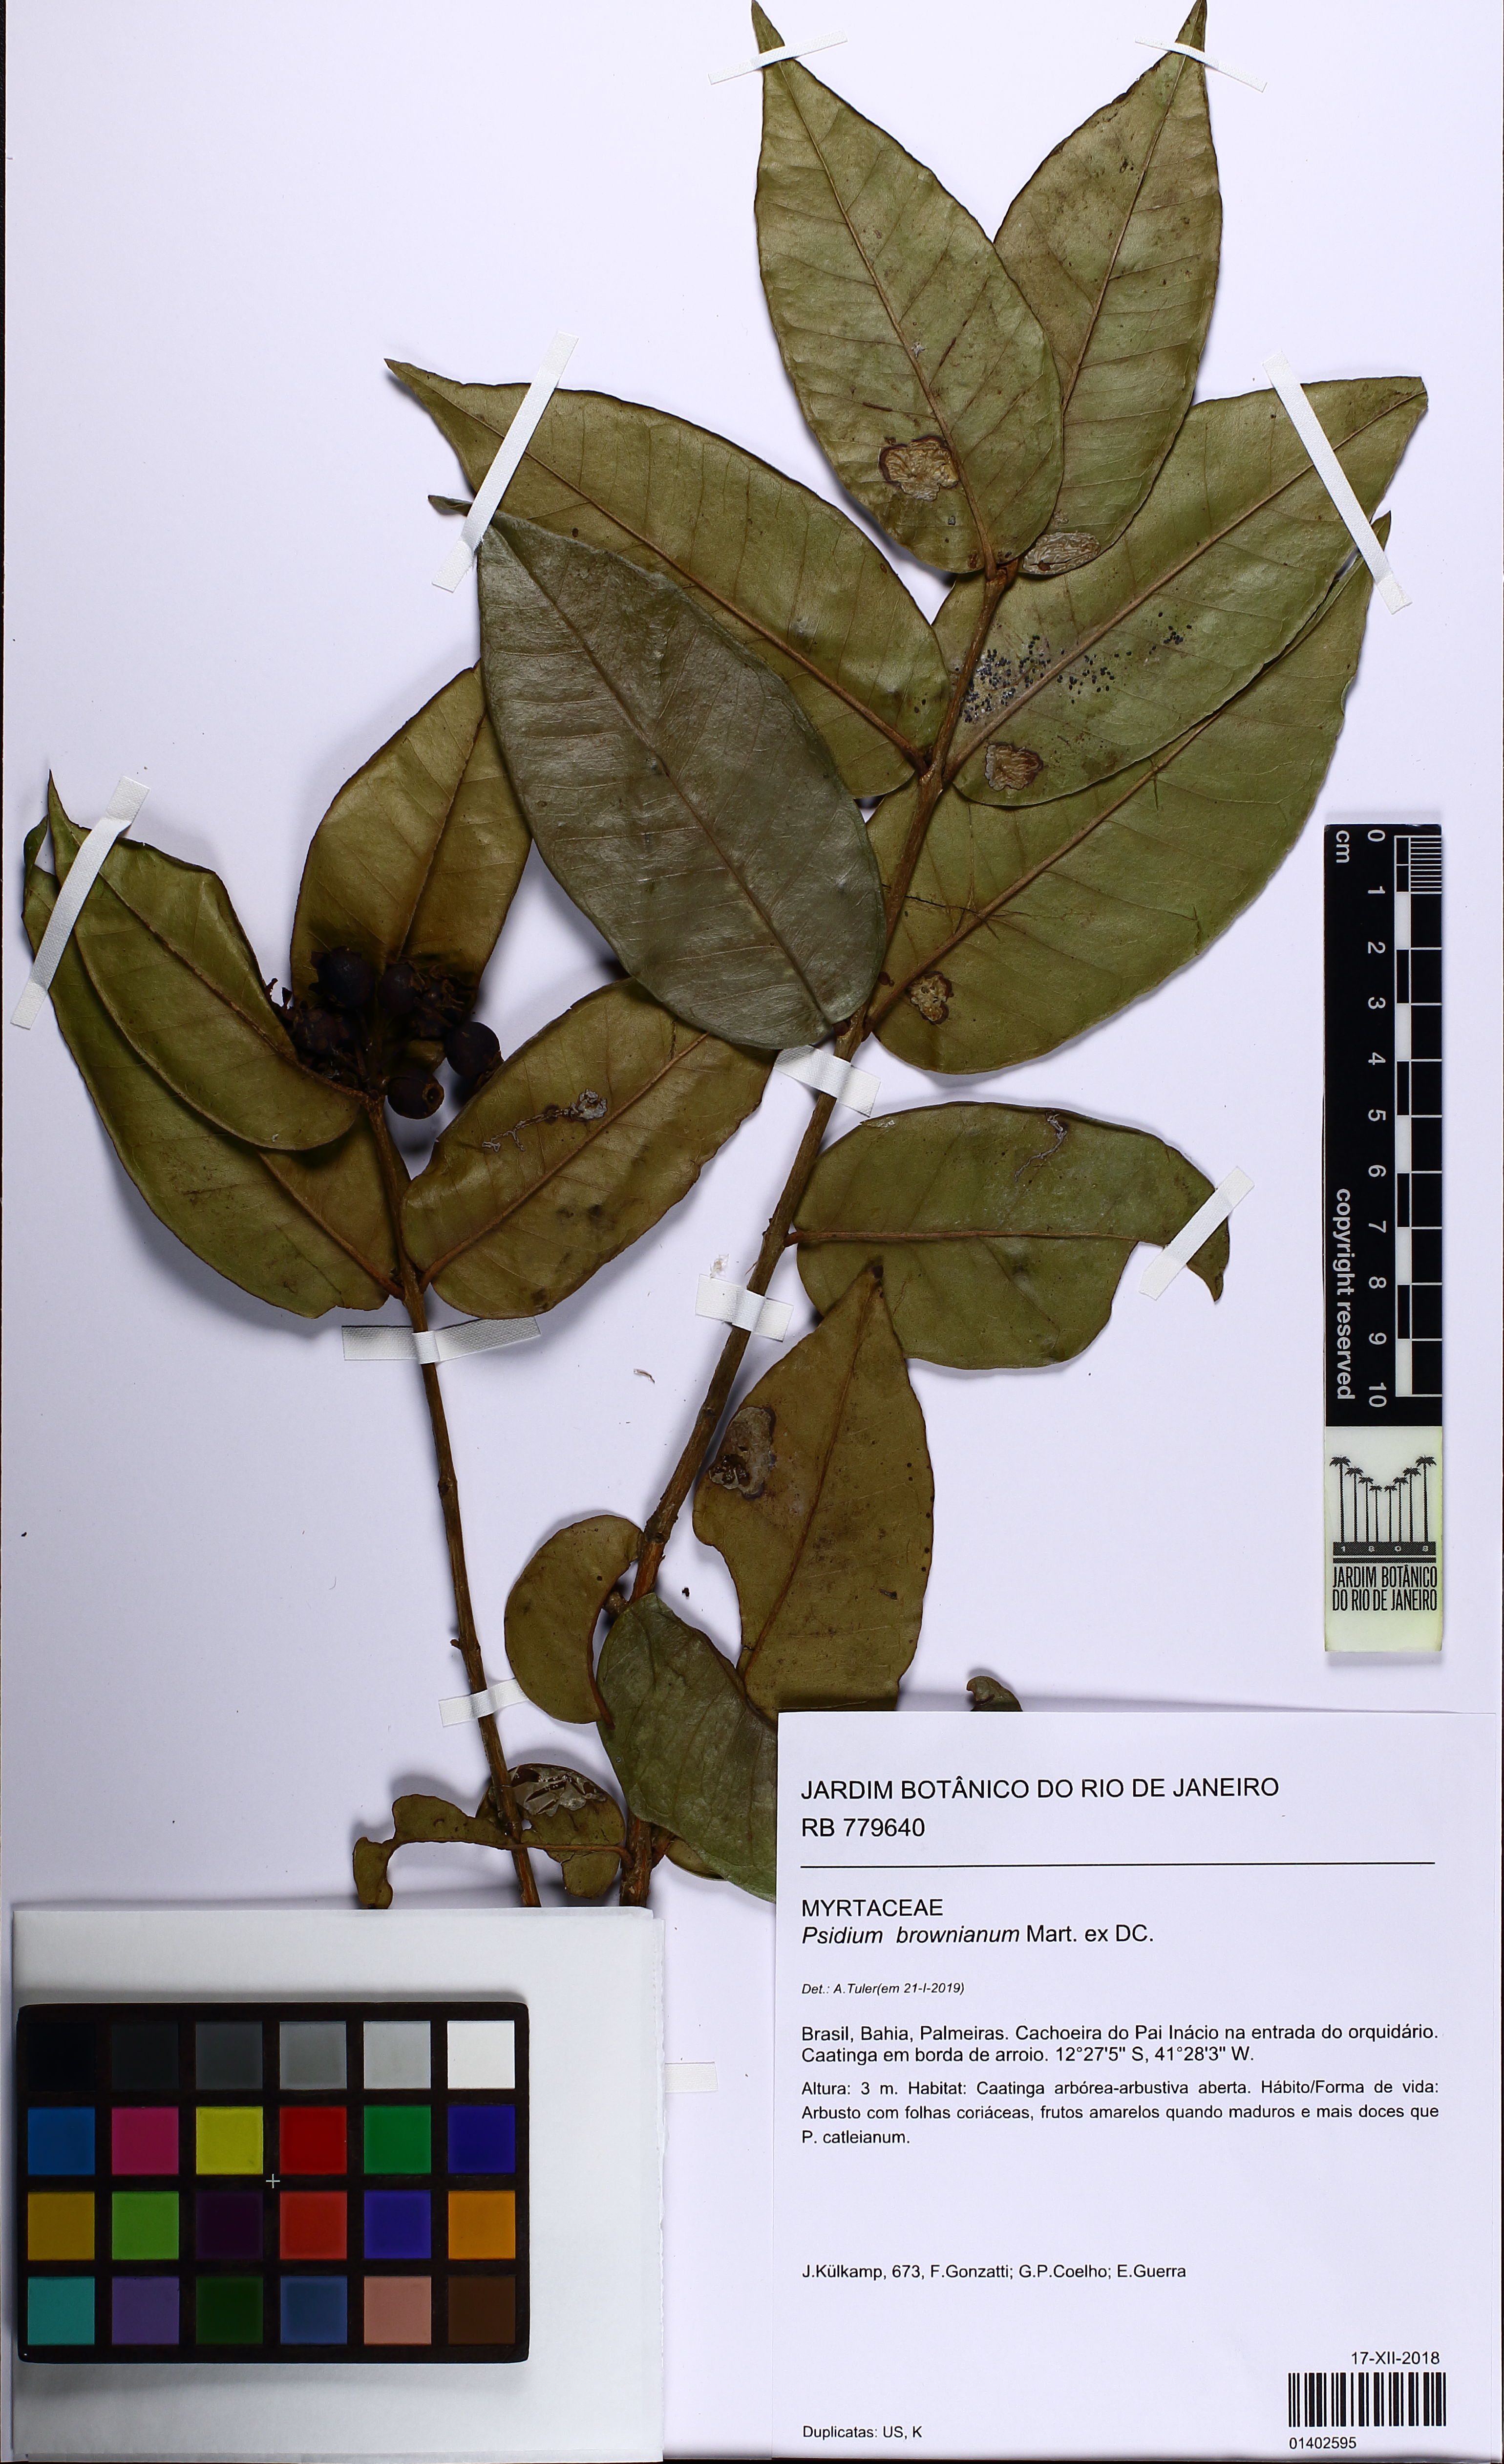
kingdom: Plantae
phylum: Tracheophyta
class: Magnoliopsida
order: Myrtales
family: Myrtaceae
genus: Psidium
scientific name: Psidium brownianum
